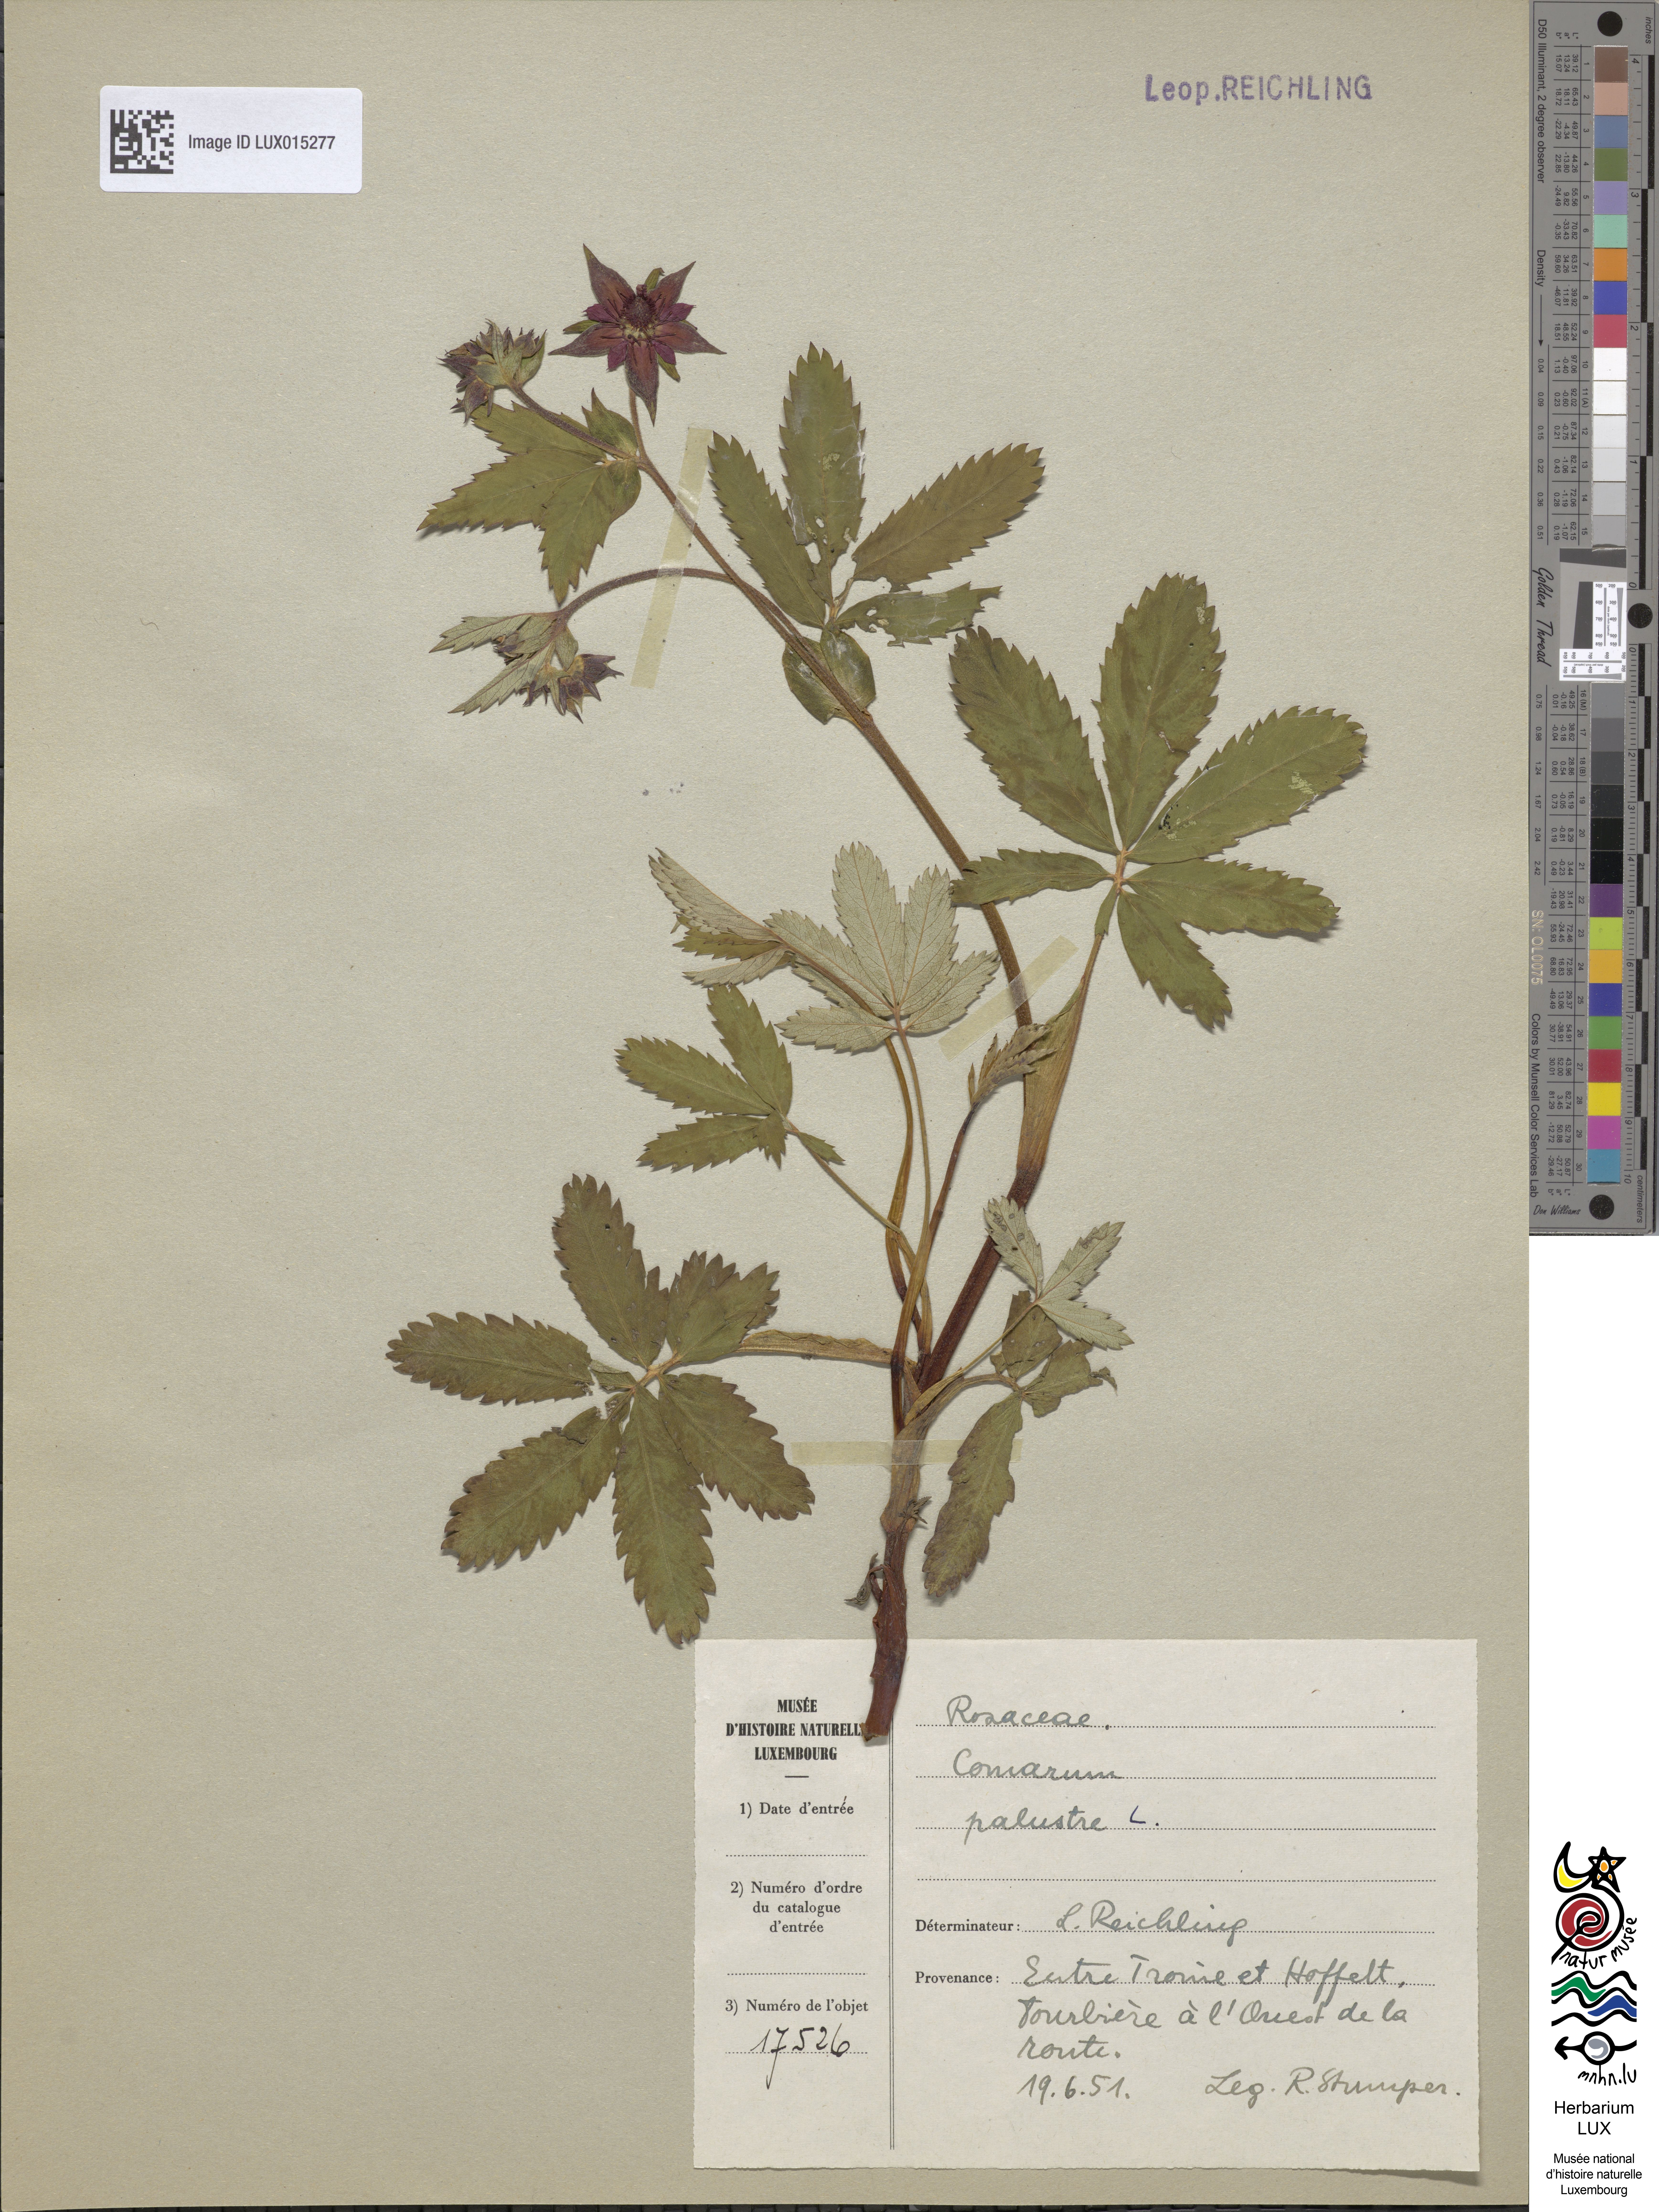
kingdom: Plantae
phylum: Tracheophyta
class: Magnoliopsida
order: Rosales
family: Rosaceae
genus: Comarum
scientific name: Comarum palustre
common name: Marsh cinquefoil
